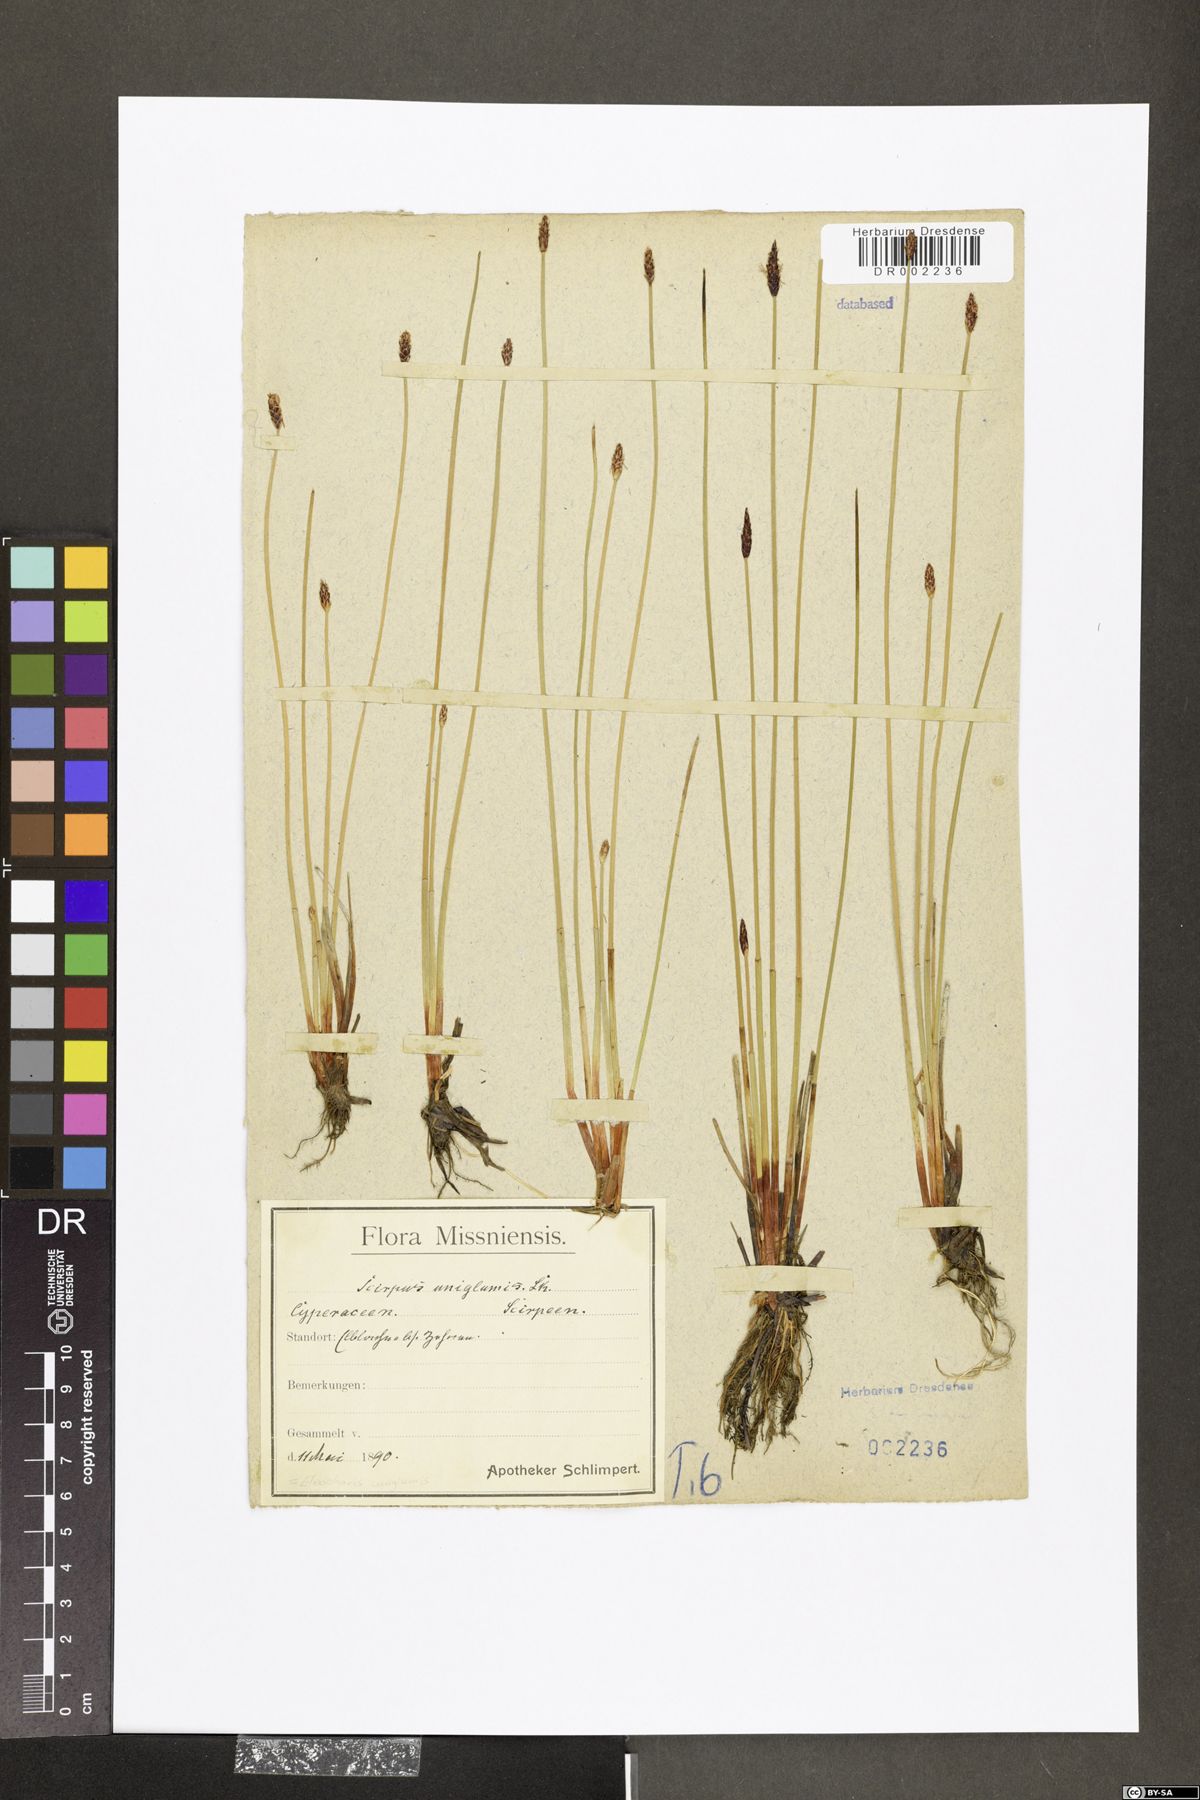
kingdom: Plantae
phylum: Tracheophyta
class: Liliopsida
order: Poales
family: Cyperaceae
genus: Eleocharis
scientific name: Eleocharis uniglumis
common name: Slender spike-rush
